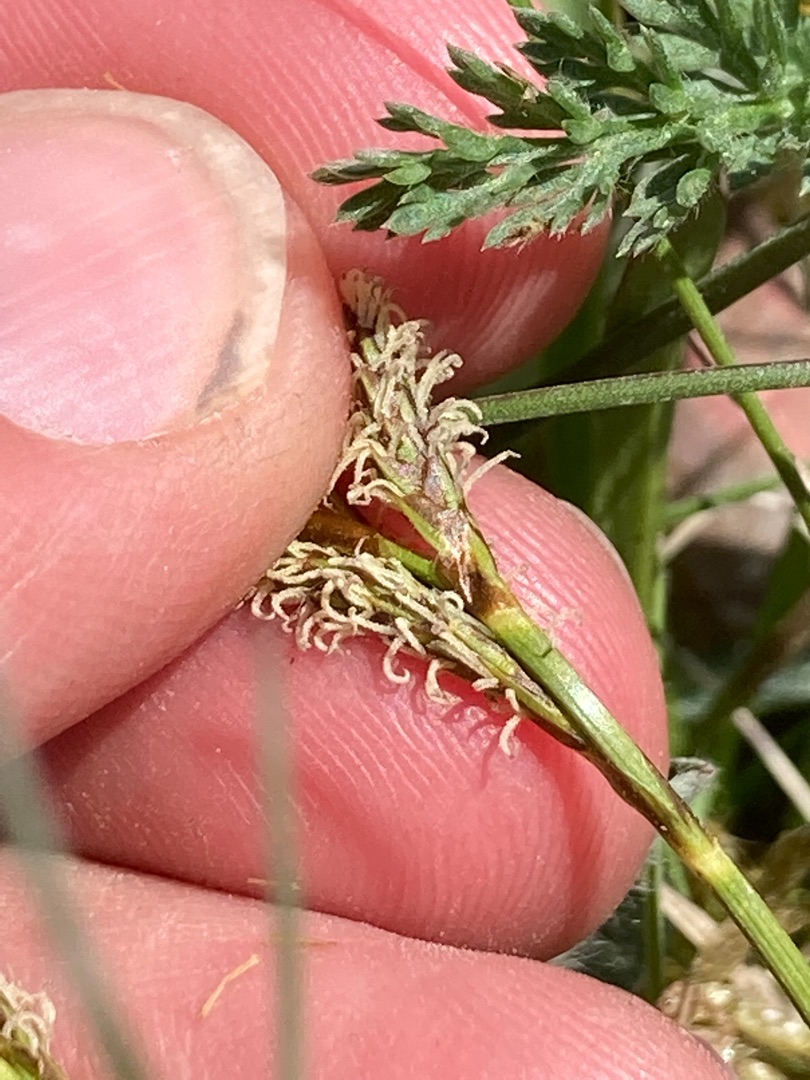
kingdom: Plantae
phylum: Tracheophyta
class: Liliopsida
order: Poales
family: Cyperaceae
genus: Carex
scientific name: Carex caryophyllea
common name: Vår-star
